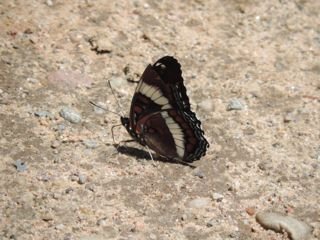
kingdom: Animalia
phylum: Arthropoda
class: Insecta
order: Lepidoptera
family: Nymphalidae
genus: Limenitis
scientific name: Limenitis arthemis
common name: Red-spotted Admiral
